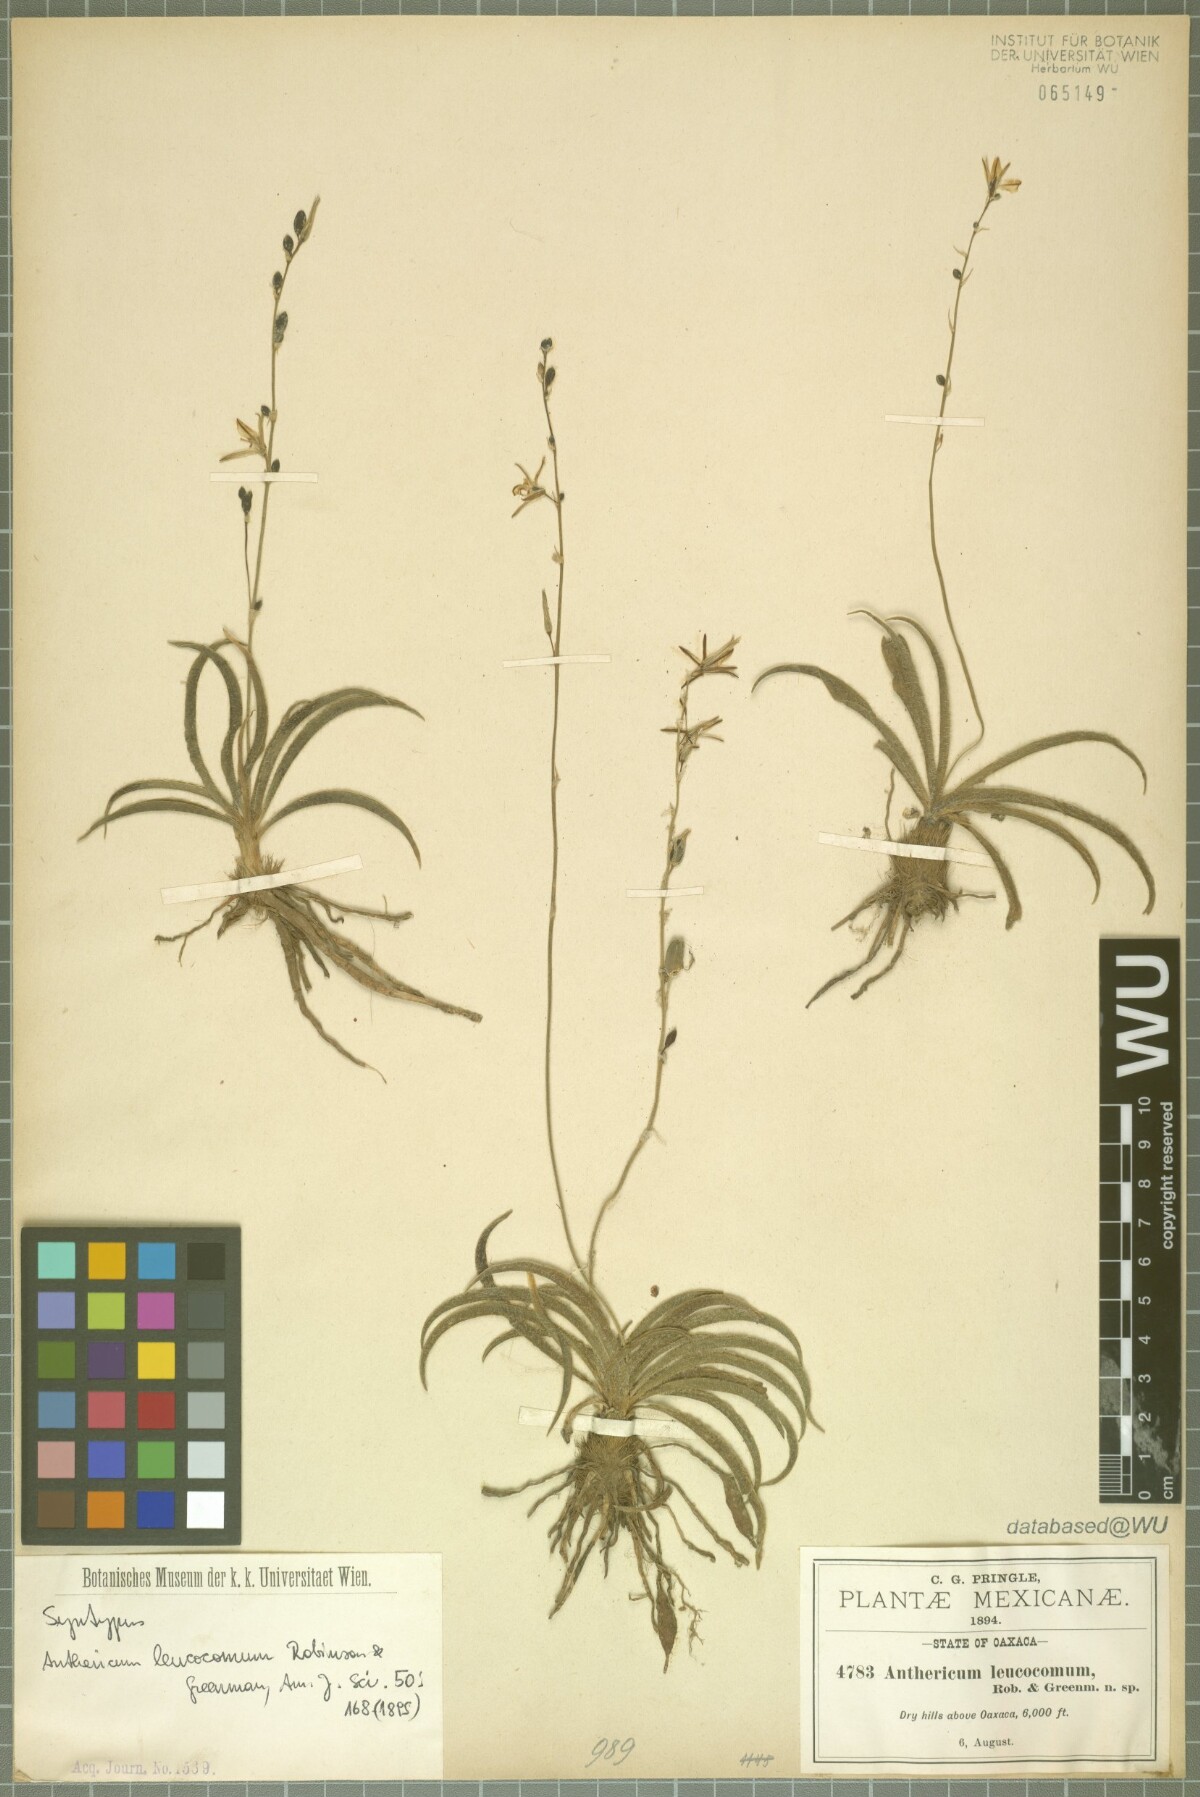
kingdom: Plantae
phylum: Tracheophyta
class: Liliopsida
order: Asparagales
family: Asparagaceae
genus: Echeandia
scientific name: Echeandia vestita
